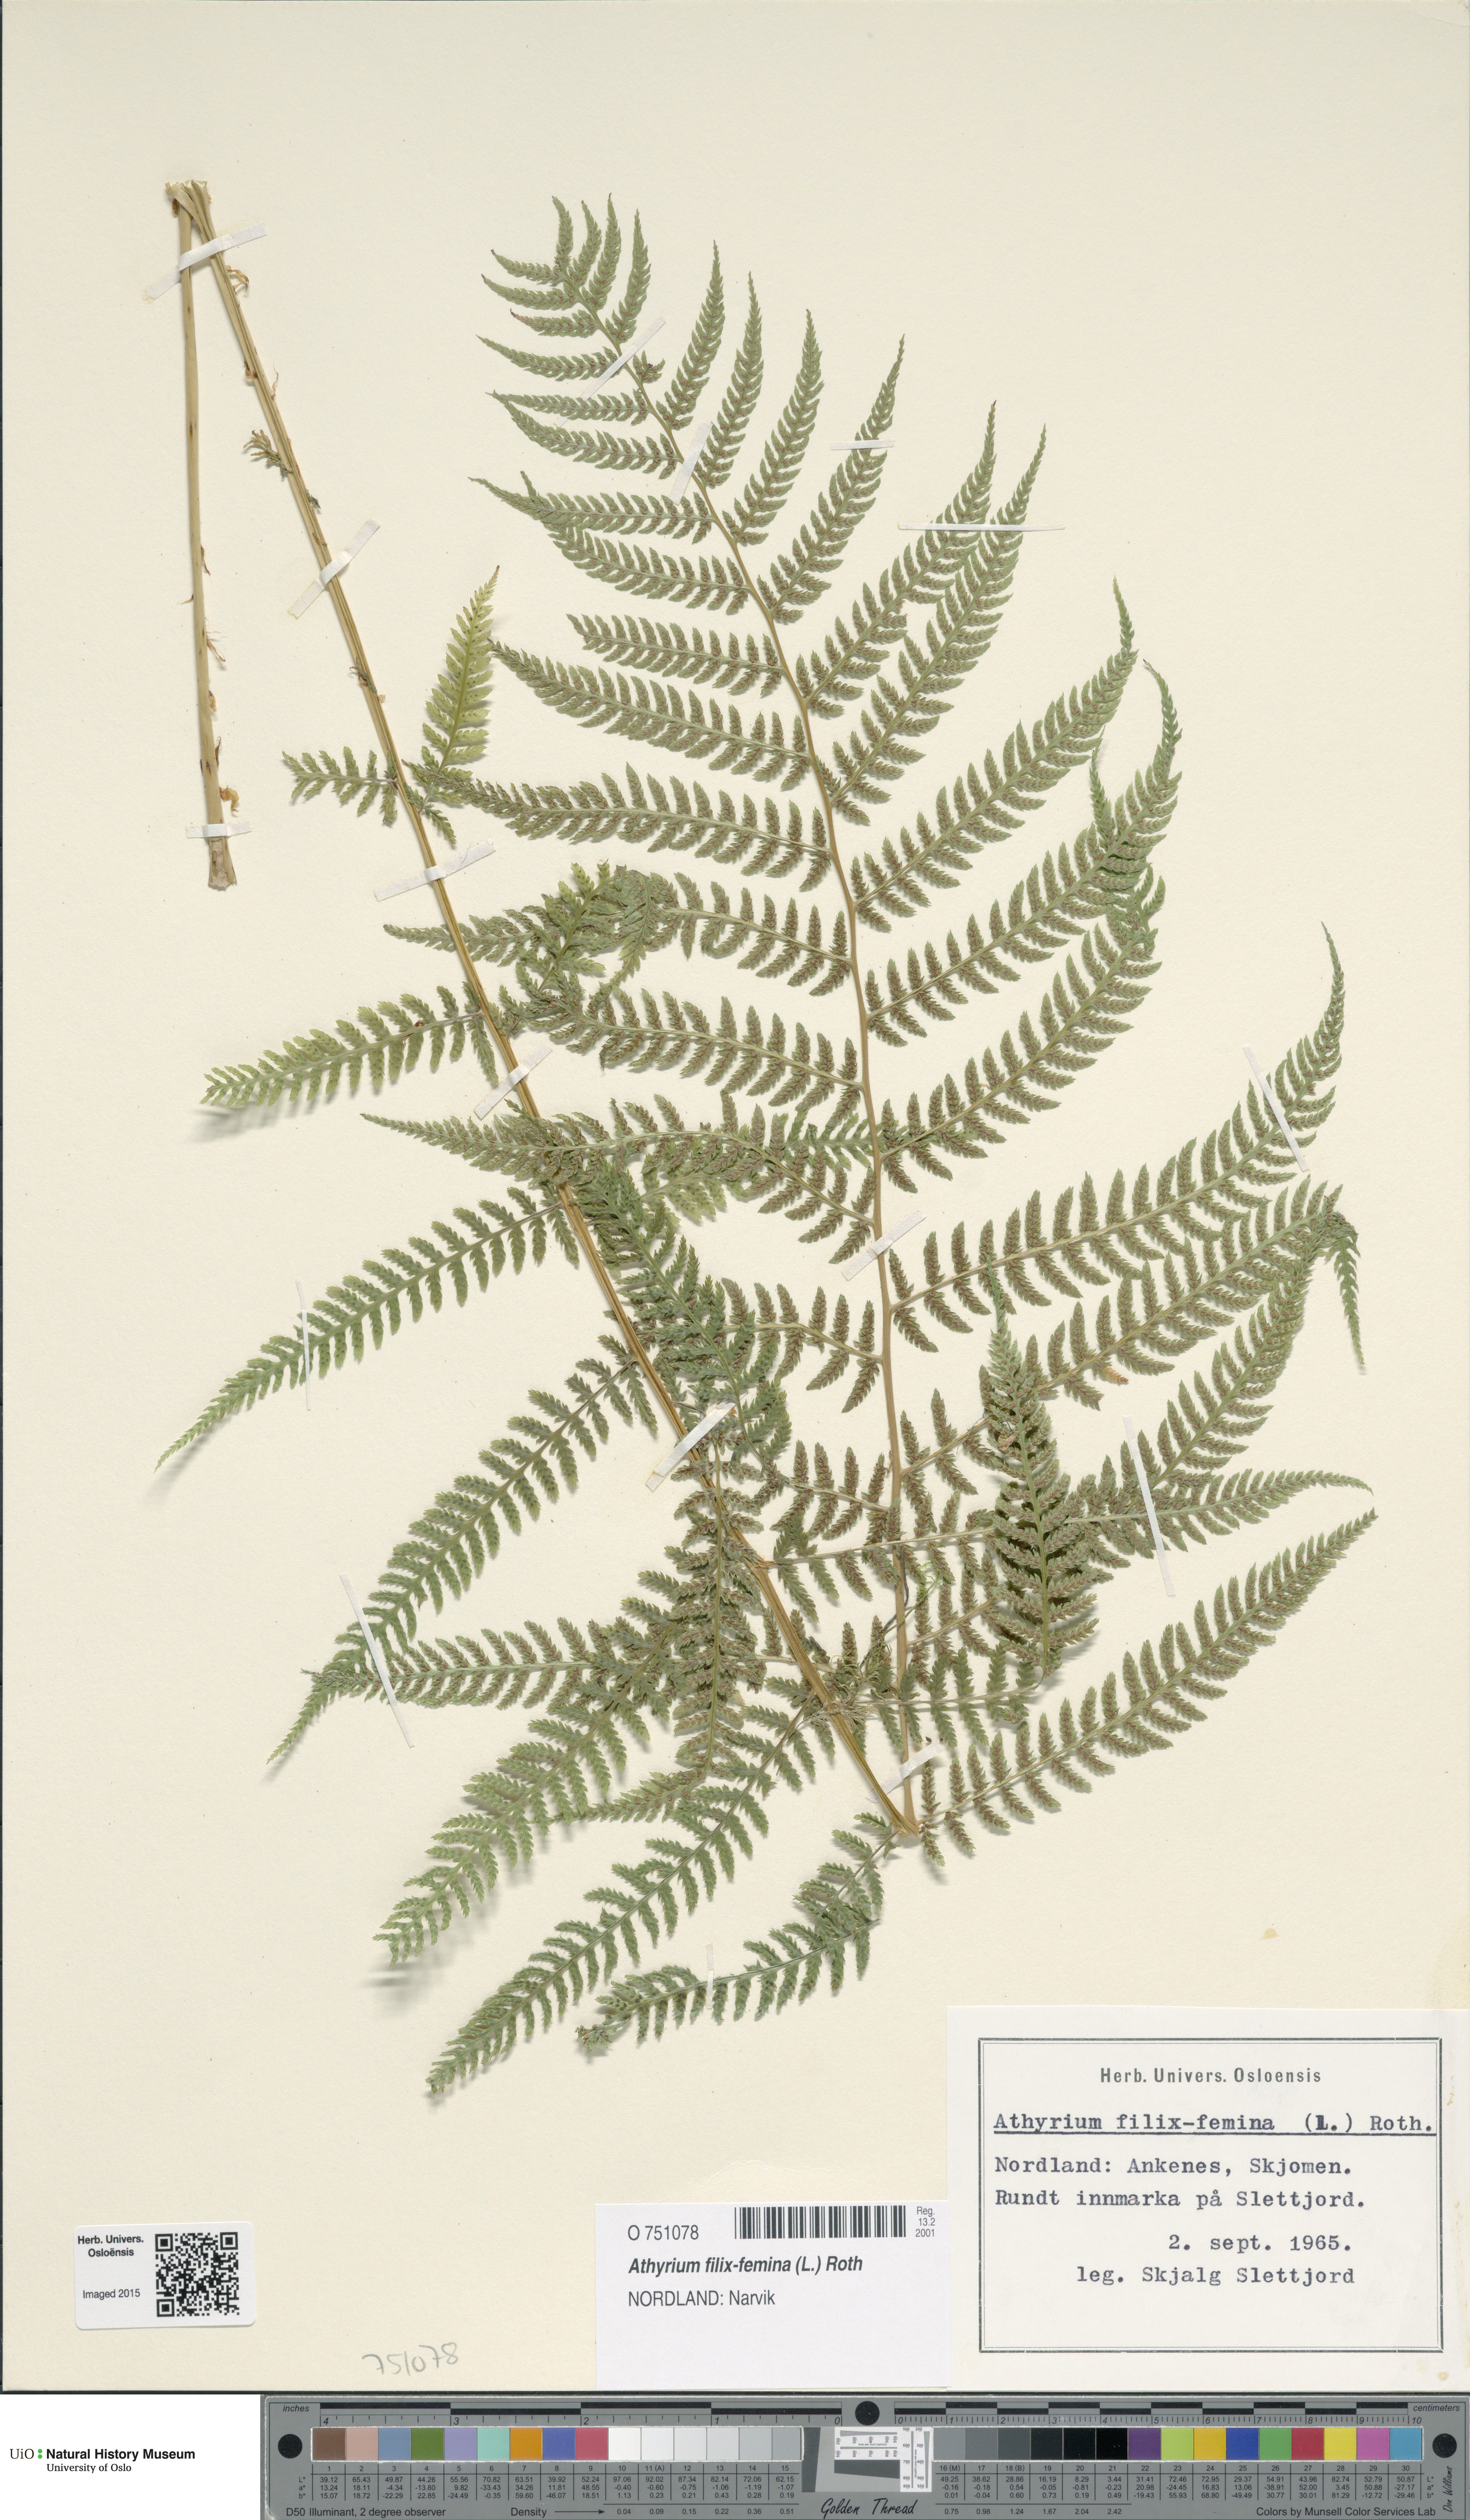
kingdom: Plantae
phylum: Tracheophyta
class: Polypodiopsida
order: Polypodiales
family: Athyriaceae
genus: Athyrium
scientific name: Athyrium filix-femina
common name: Lady fern
